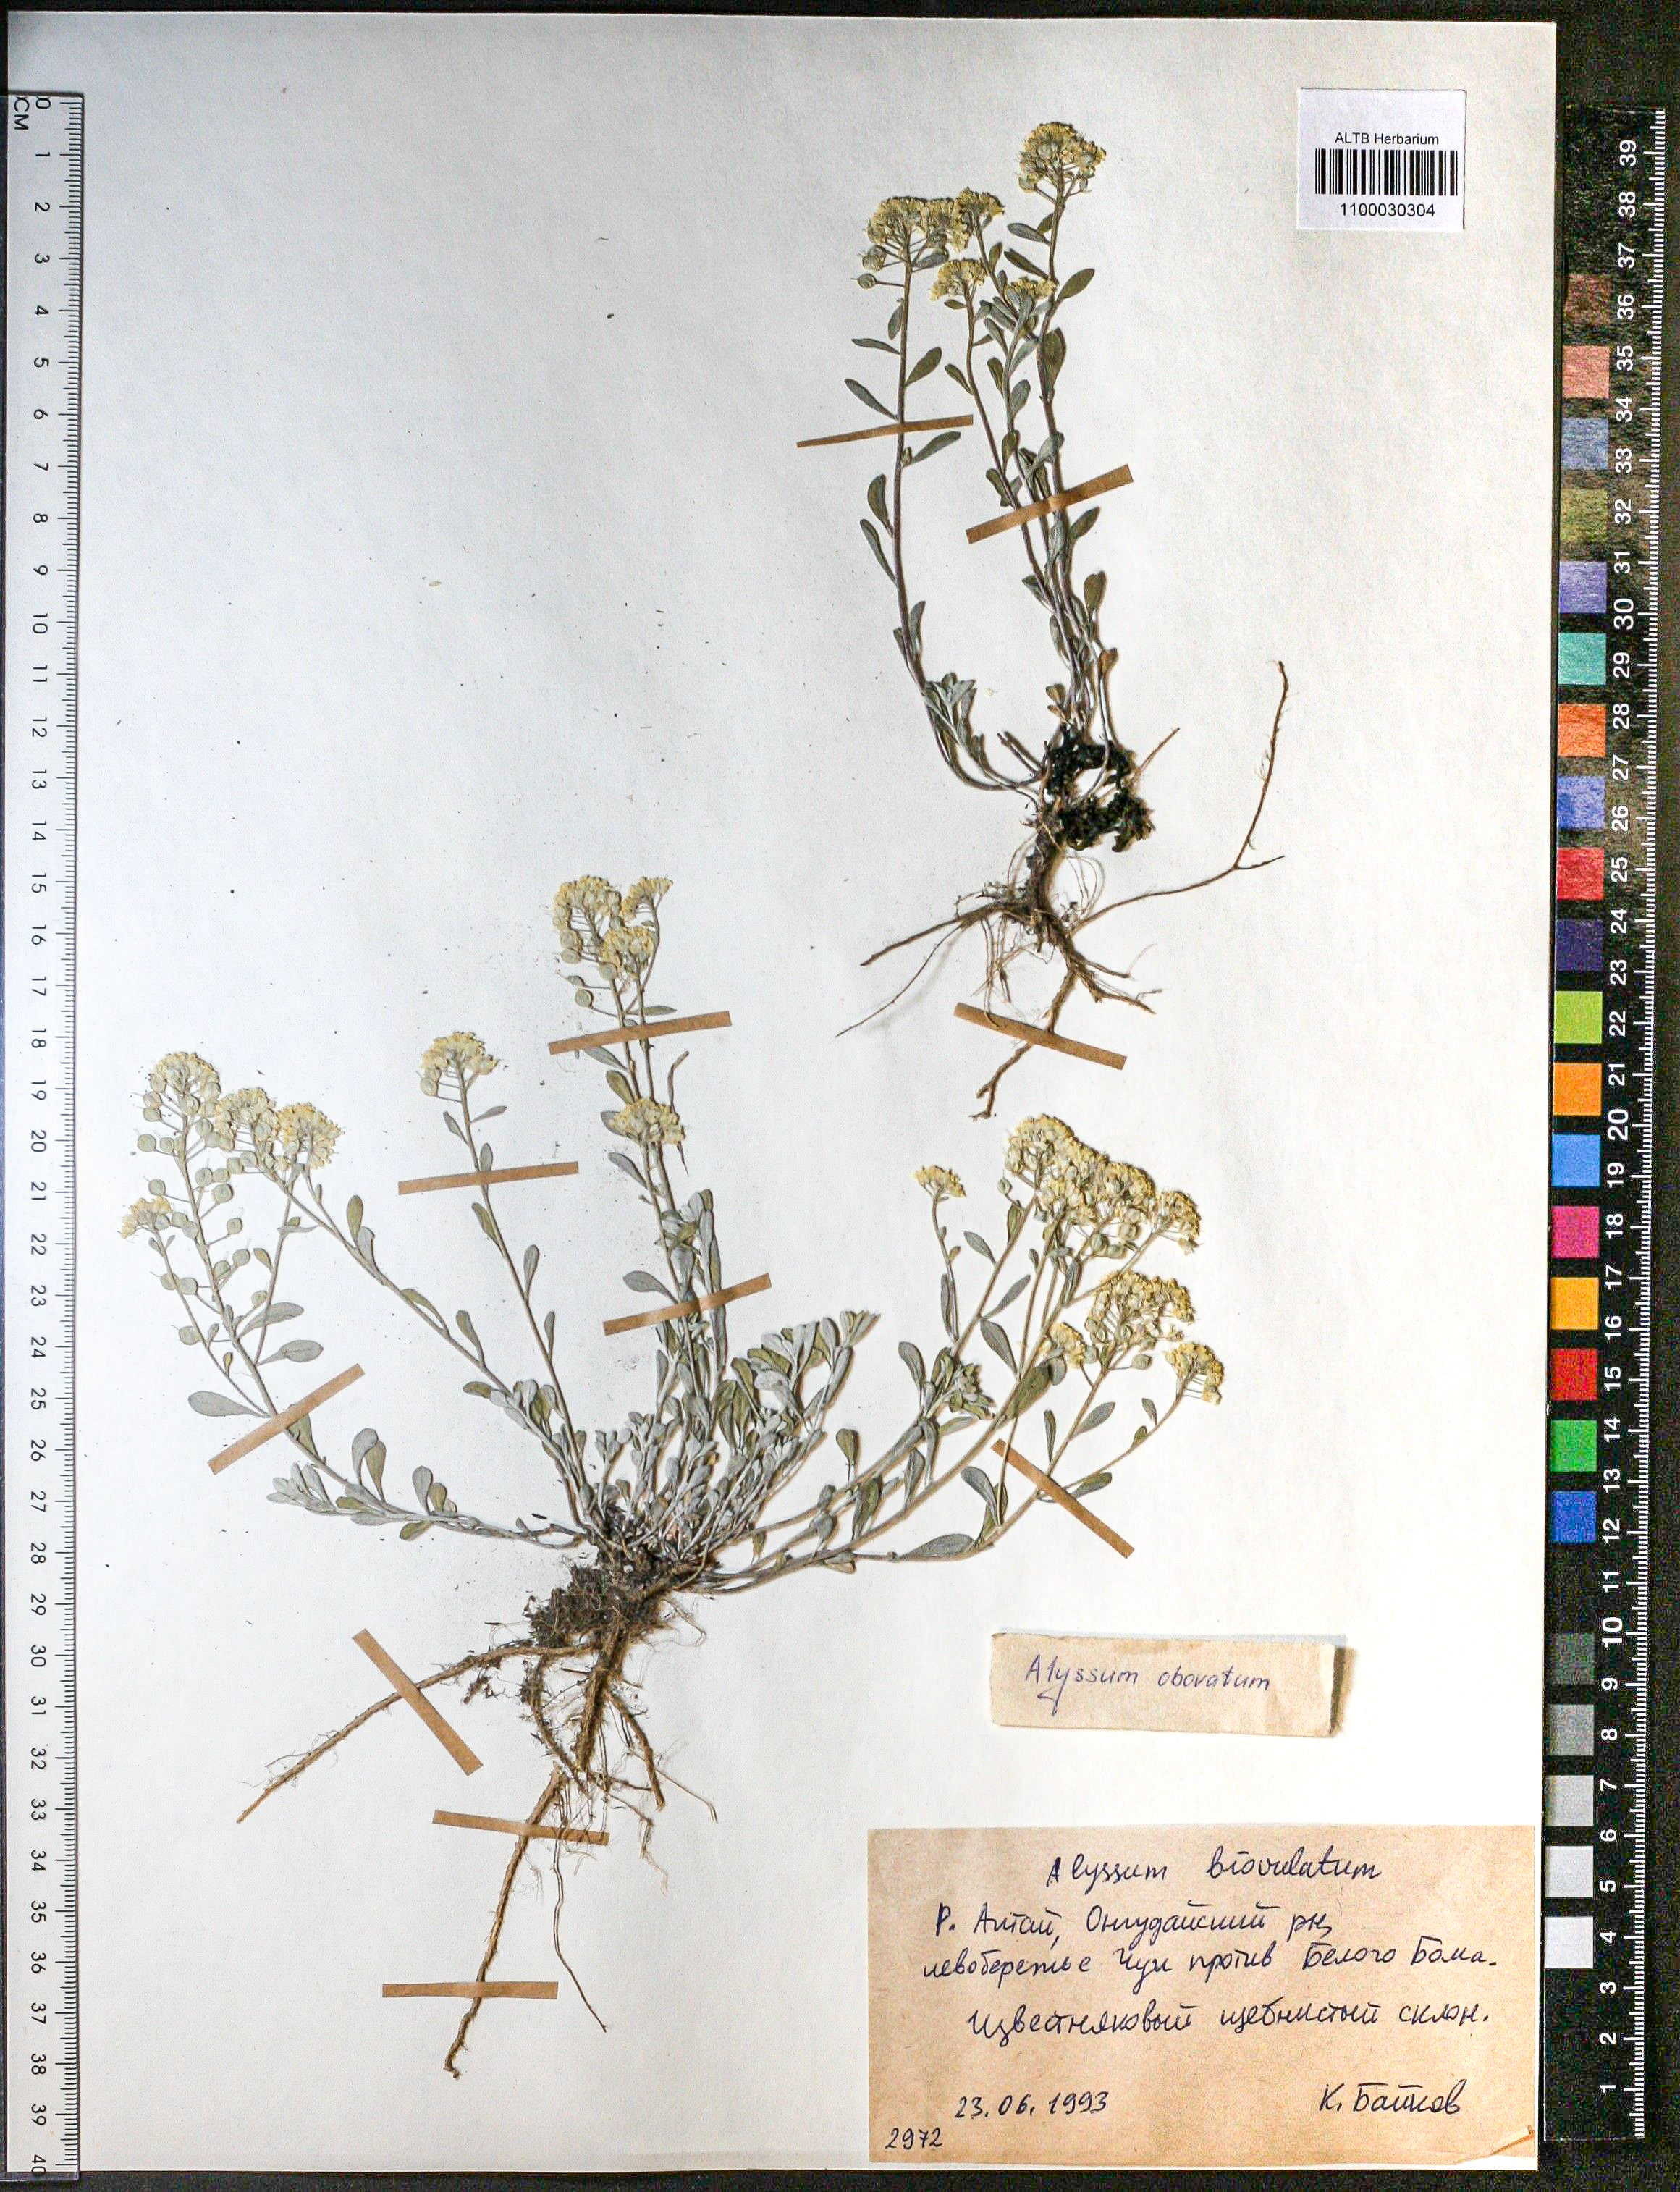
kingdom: Plantae
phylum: Tracheophyta
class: Magnoliopsida
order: Brassicales
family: Brassicaceae
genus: Odontarrhena
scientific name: Odontarrhena obovata
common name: American alyssum
